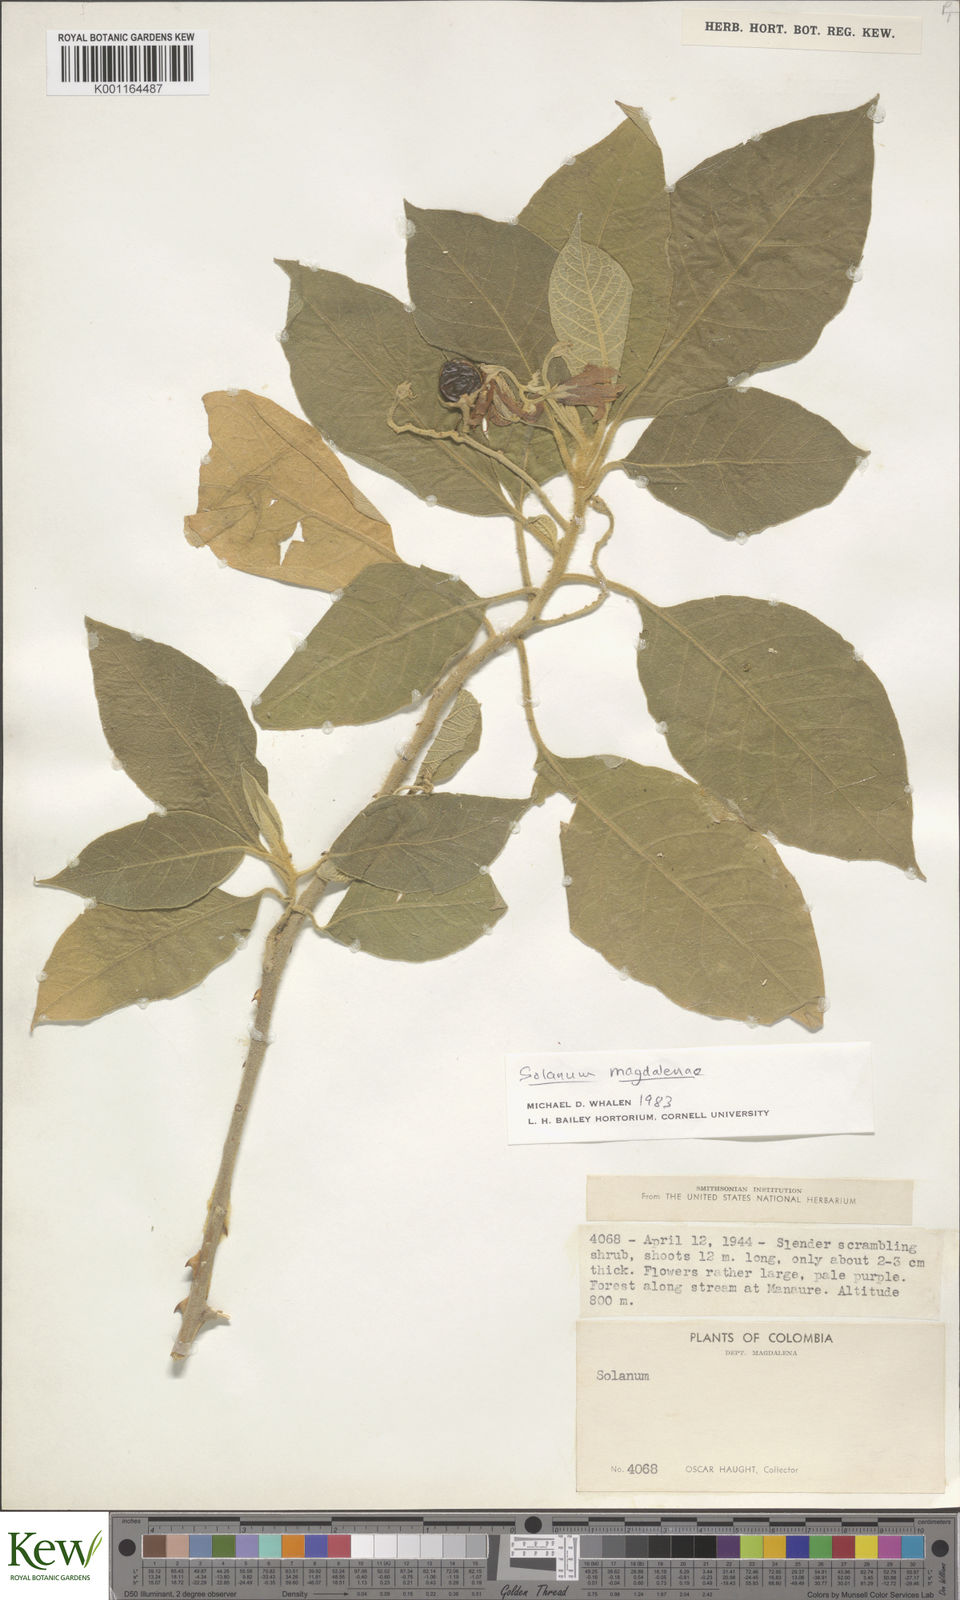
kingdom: Plantae
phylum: Tracheophyta
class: Magnoliopsida
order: Solanales
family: Solanaceae
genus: Solanum
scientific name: Solanum campylacanthum
